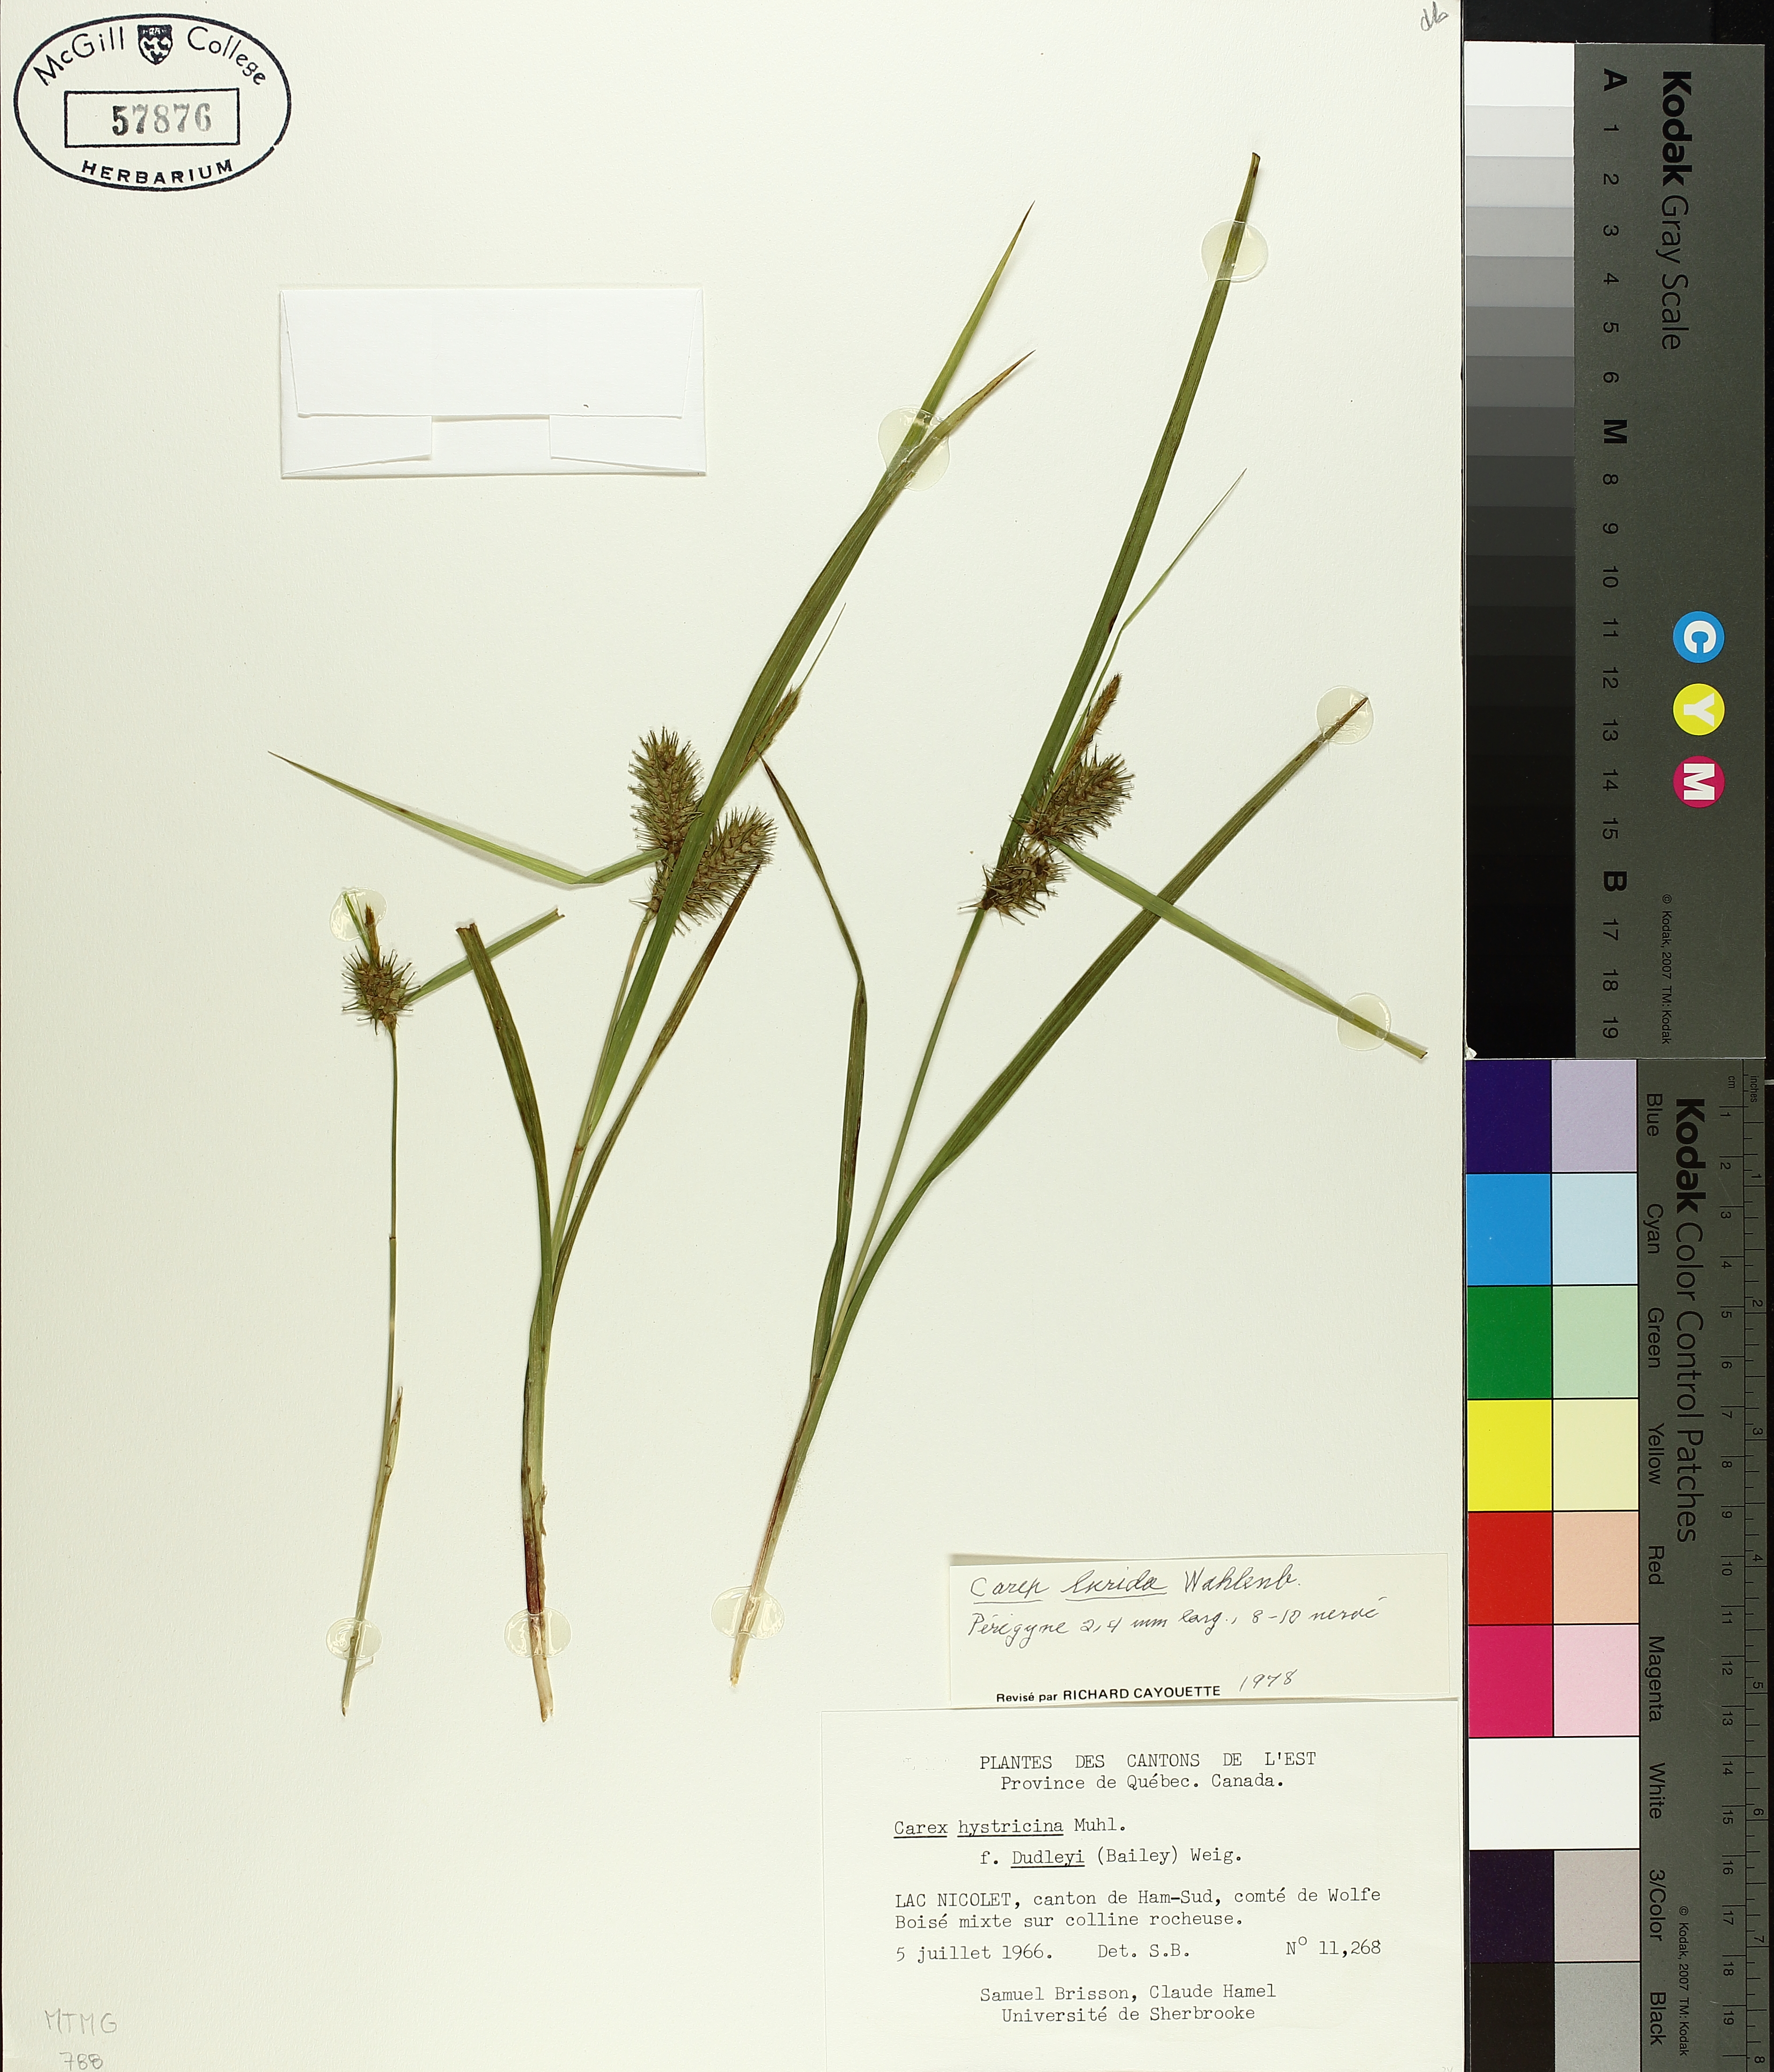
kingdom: Plantae
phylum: Tracheophyta
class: Liliopsida
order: Poales
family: Cyperaceae
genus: Carex
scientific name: Carex lurida
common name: Sallow sedge
